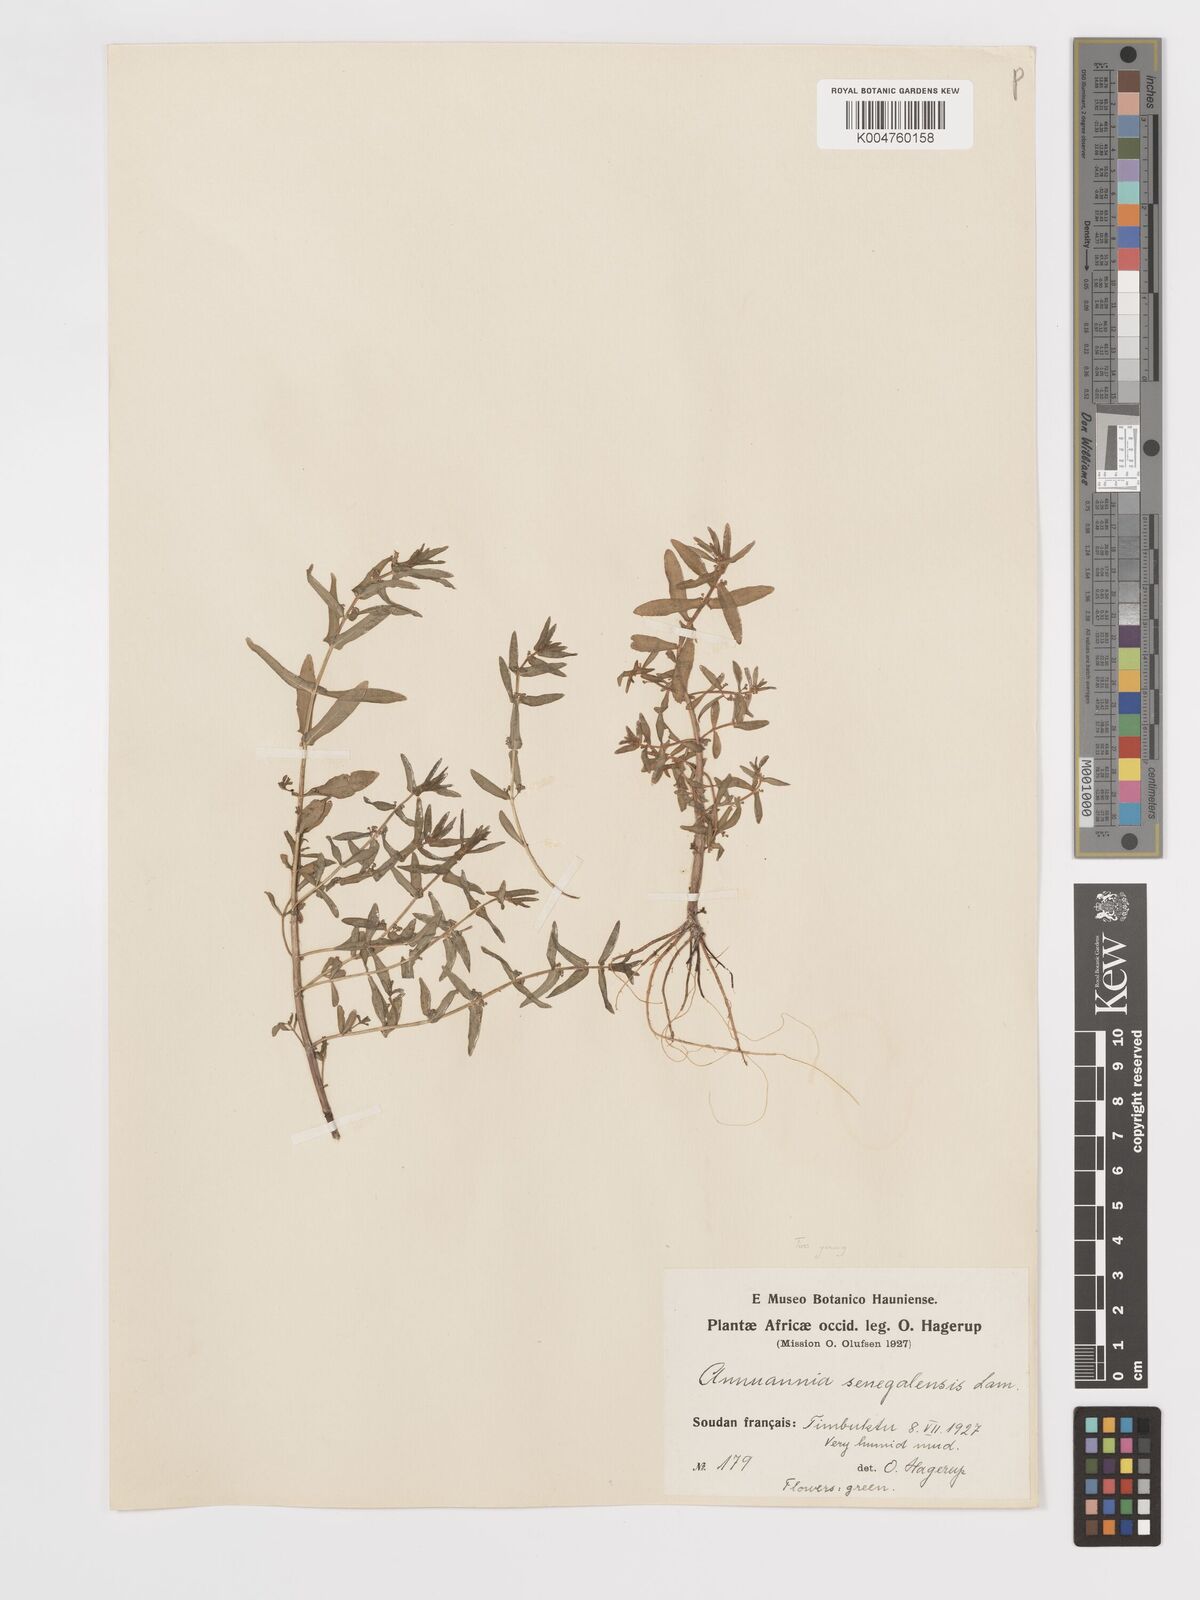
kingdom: Plantae
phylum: Tracheophyta
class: Magnoliopsida
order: Myrtales
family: Lythraceae
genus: Ammannia
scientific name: Ammannia
